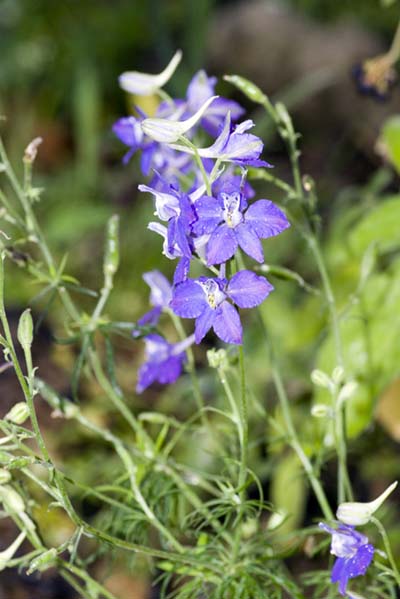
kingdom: Plantae
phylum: Tracheophyta
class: Magnoliopsida
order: Ranunculales
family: Ranunculaceae
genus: Delphinium
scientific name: Delphinium ajacis
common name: Doubtful knight's-spur
